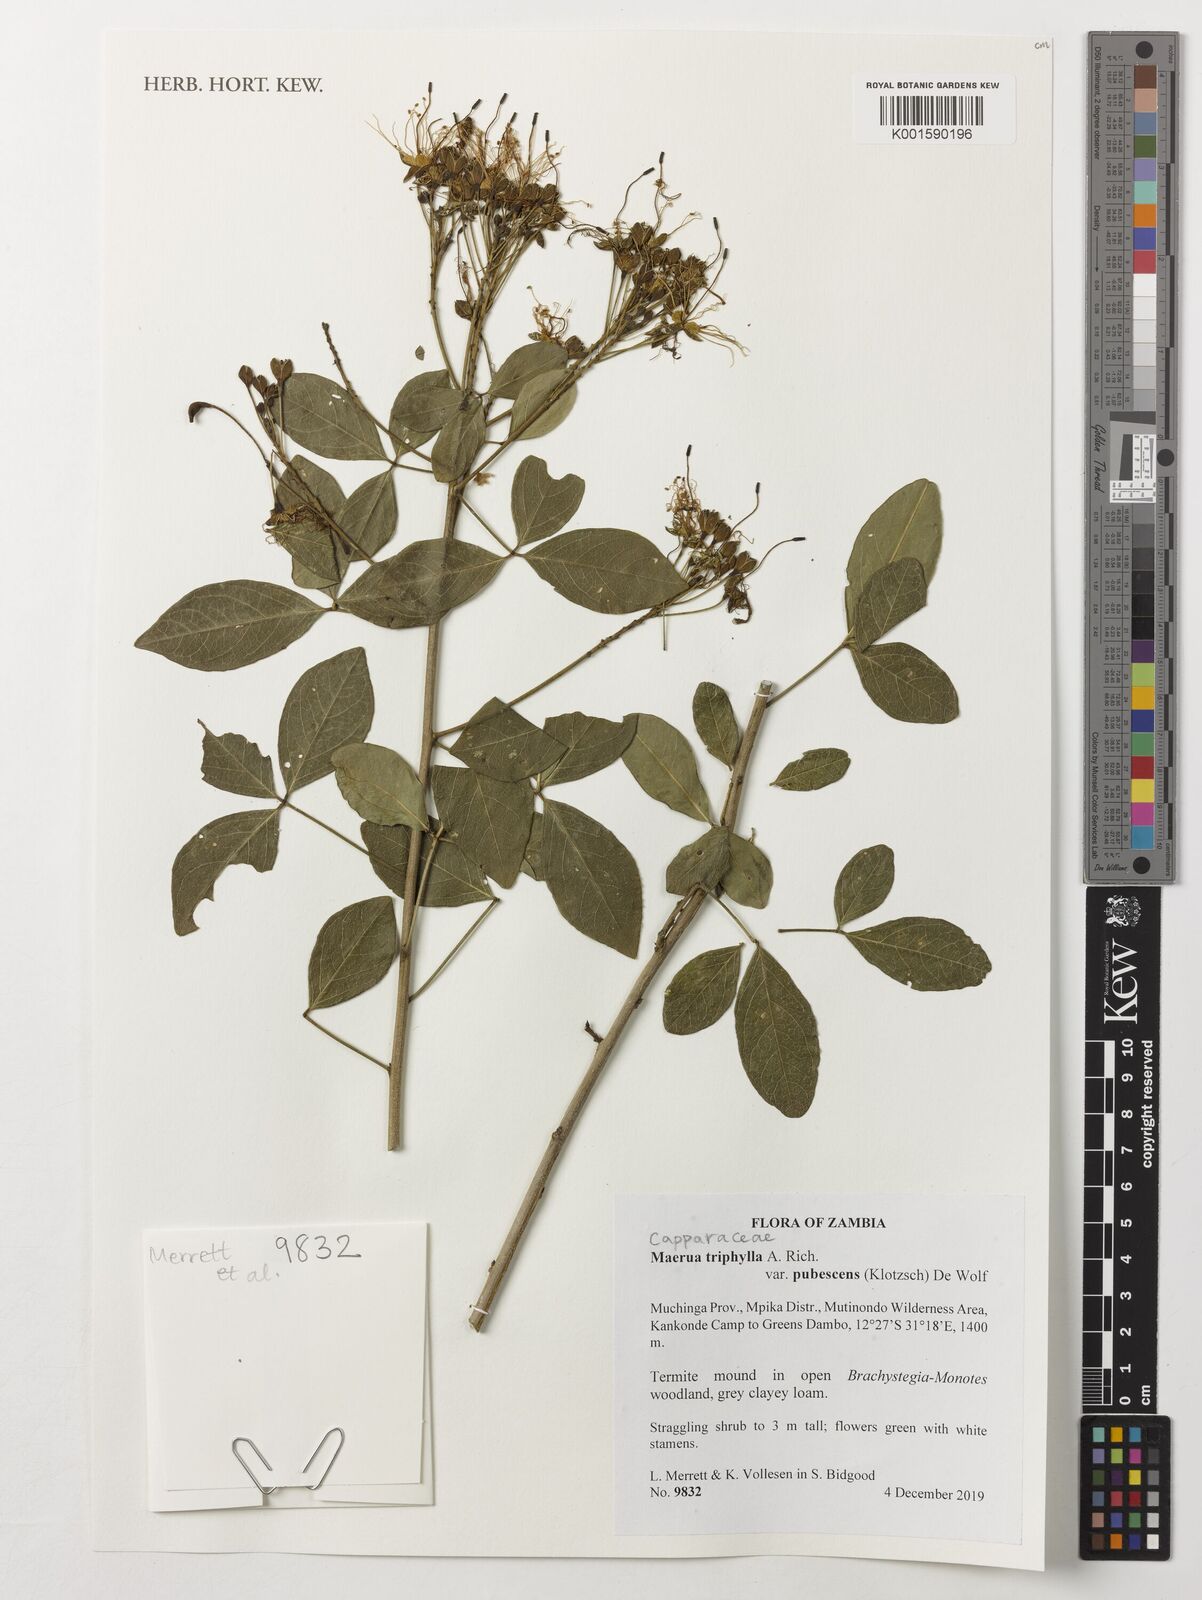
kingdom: Plantae
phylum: Tracheophyta
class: Magnoliopsida
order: Brassicales
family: Capparaceae
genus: Maerua
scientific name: Maerua triphylla
